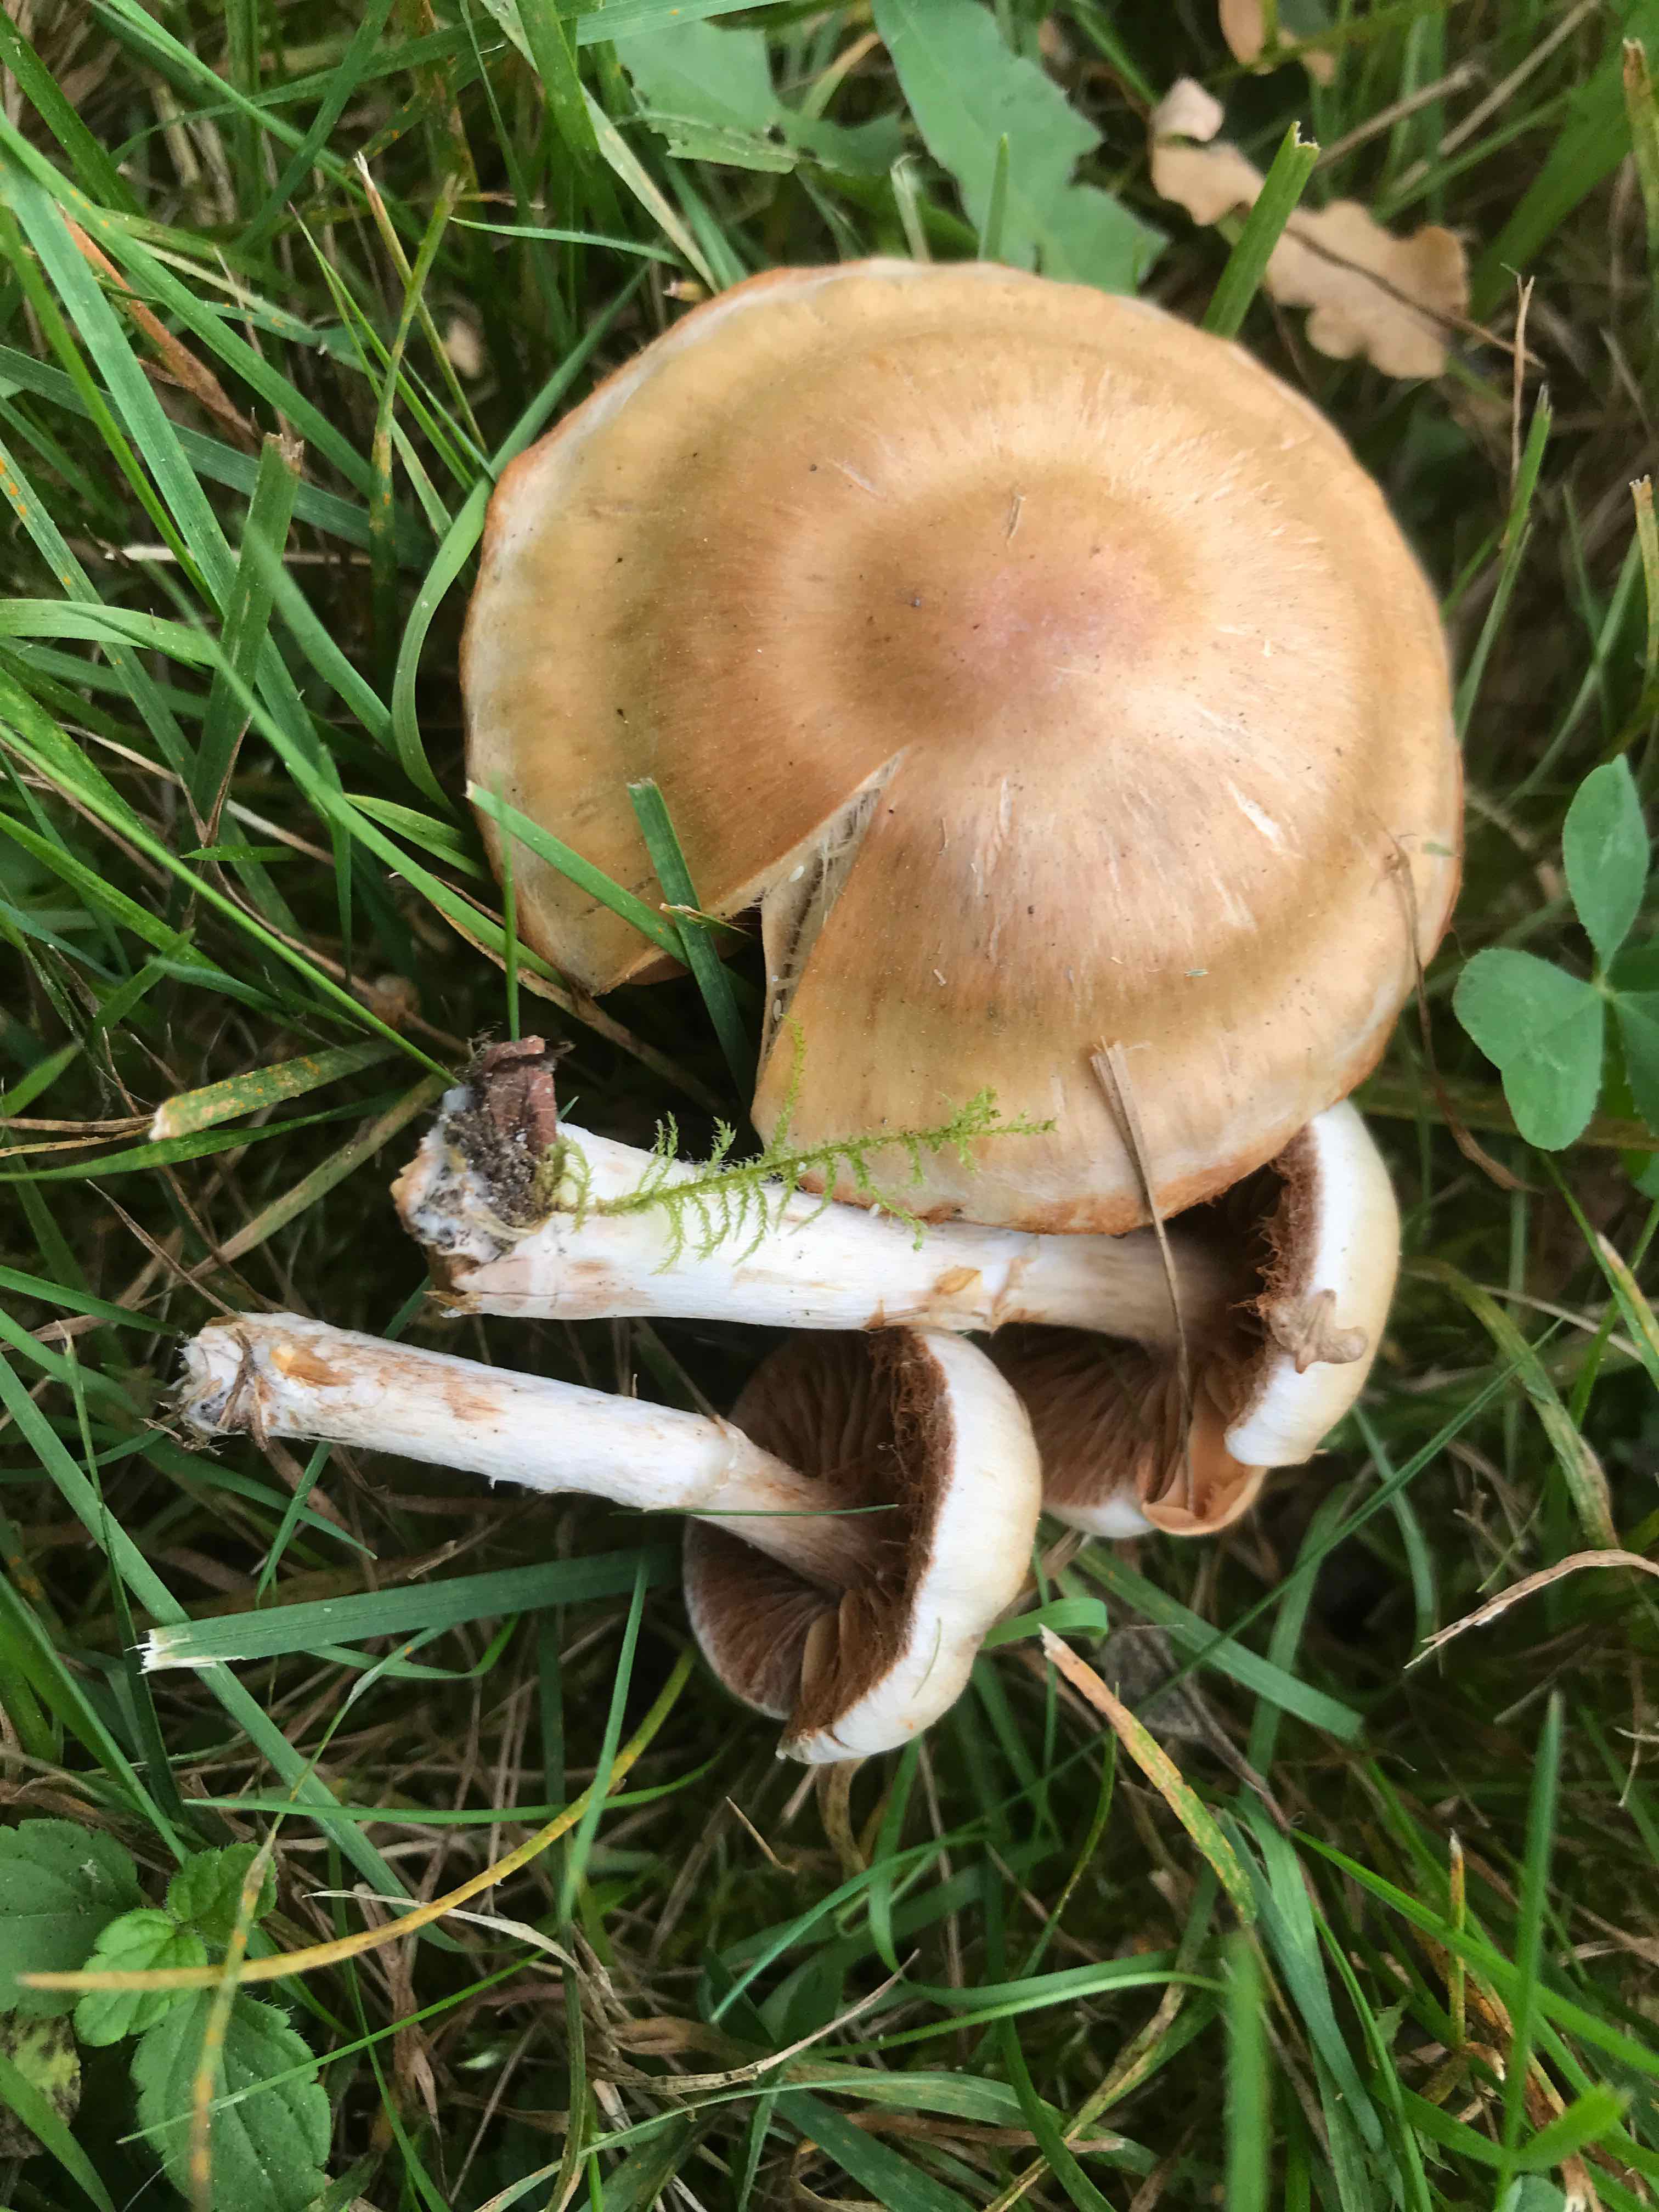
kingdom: Fungi
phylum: Basidiomycota
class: Agaricomycetes
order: Agaricales
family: Cortinariaceae
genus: Cortinarius
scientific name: Cortinarius
